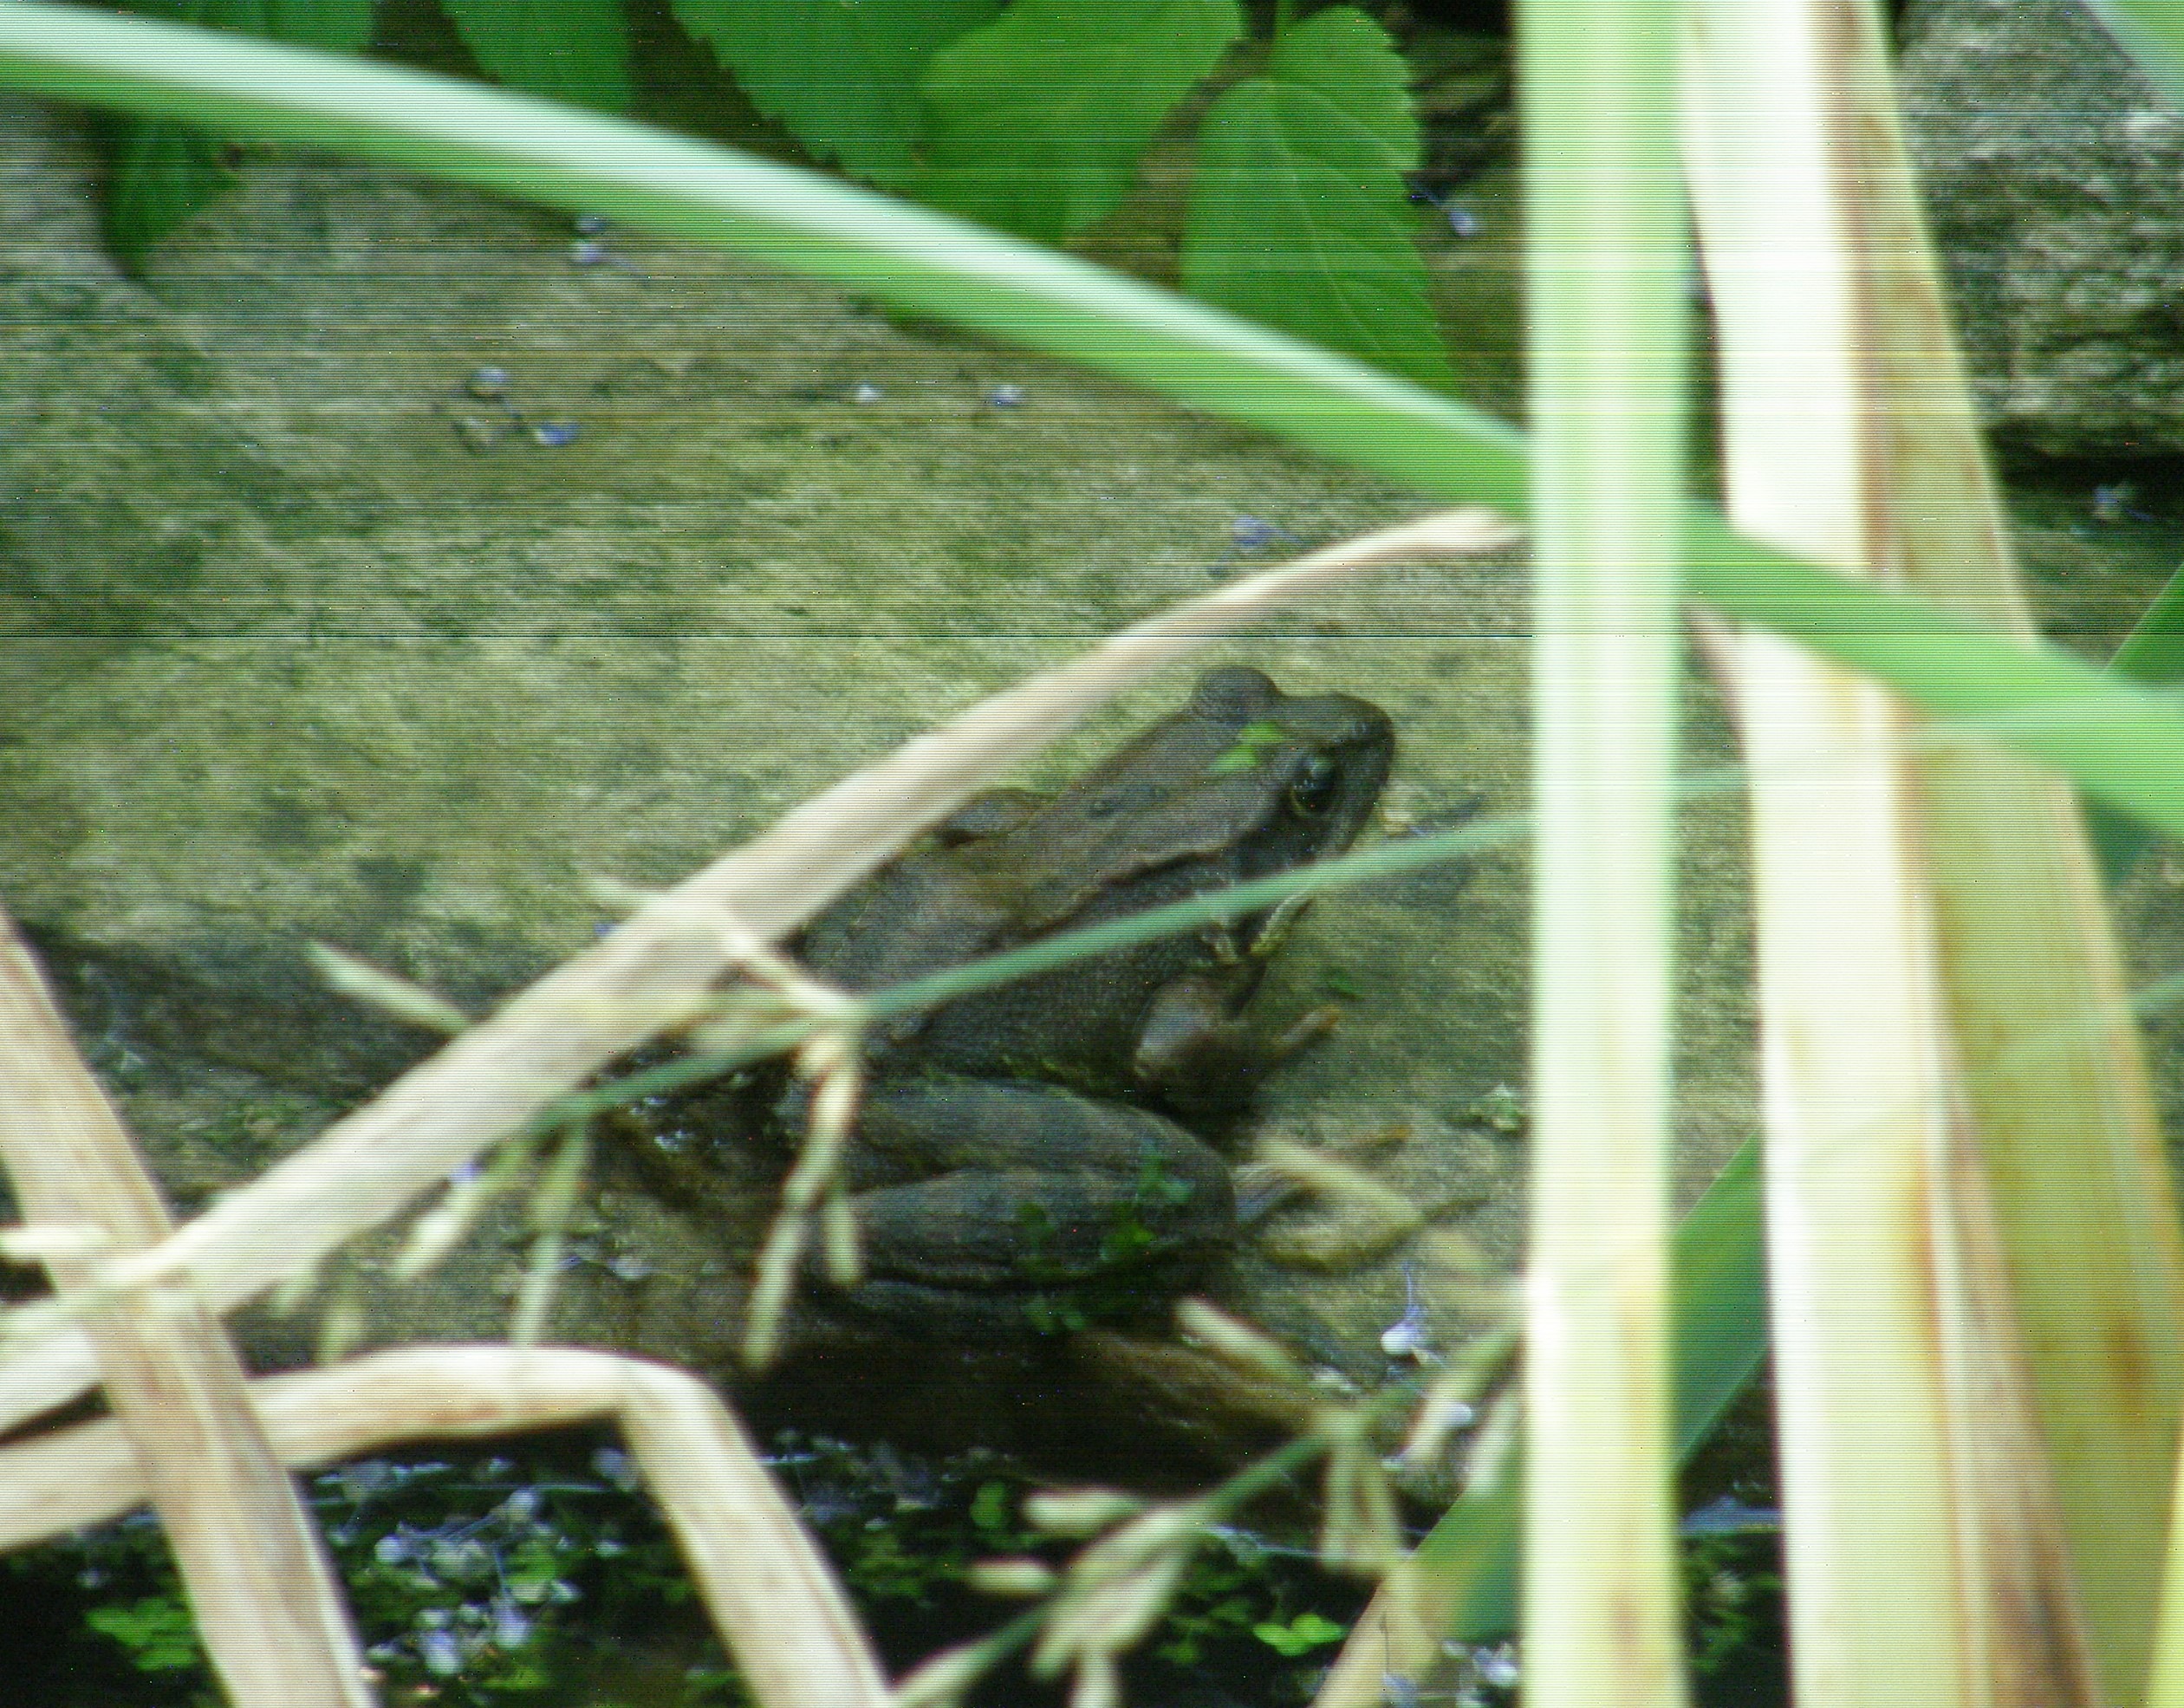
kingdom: Animalia
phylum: Chordata
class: Amphibia
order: Anura
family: Ranidae
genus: Rana
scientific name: Rana temporaria
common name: Butsnudet frø
